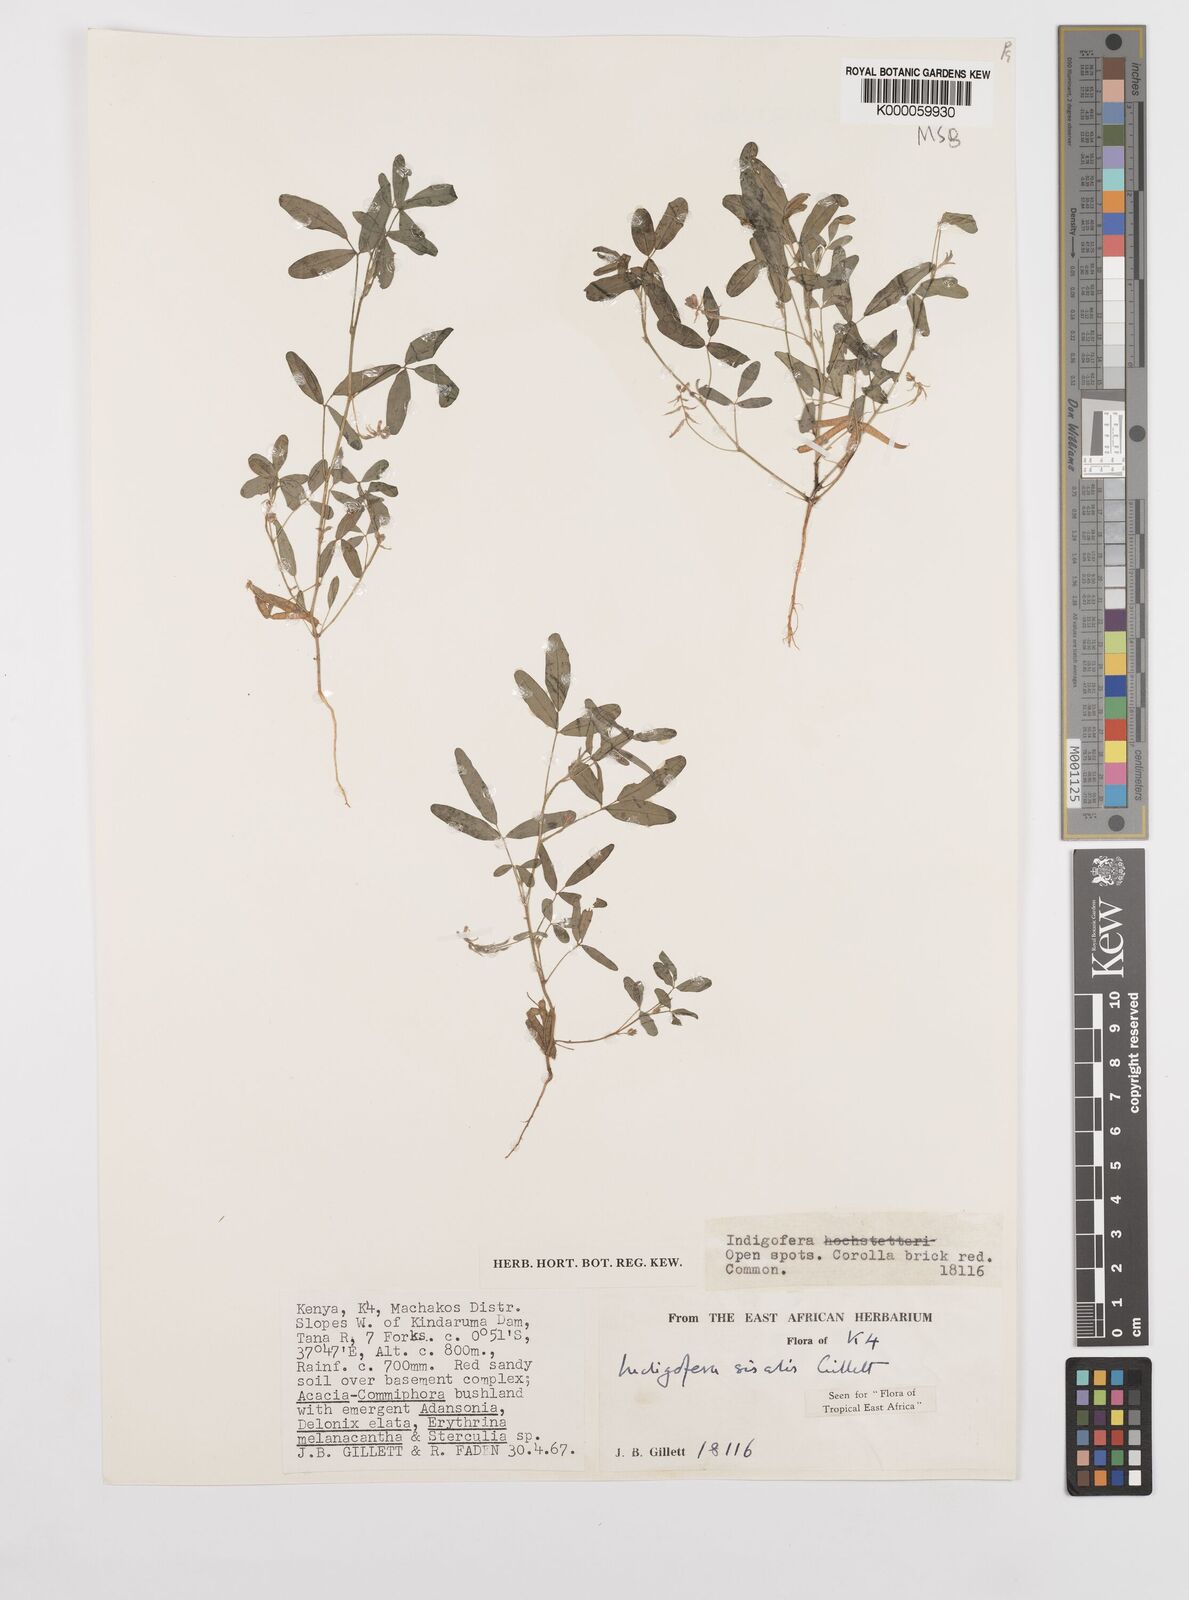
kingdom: Plantae
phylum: Tracheophyta
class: Magnoliopsida
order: Fabales
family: Fabaceae
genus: Indigofera
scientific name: Indigofera sisalis
